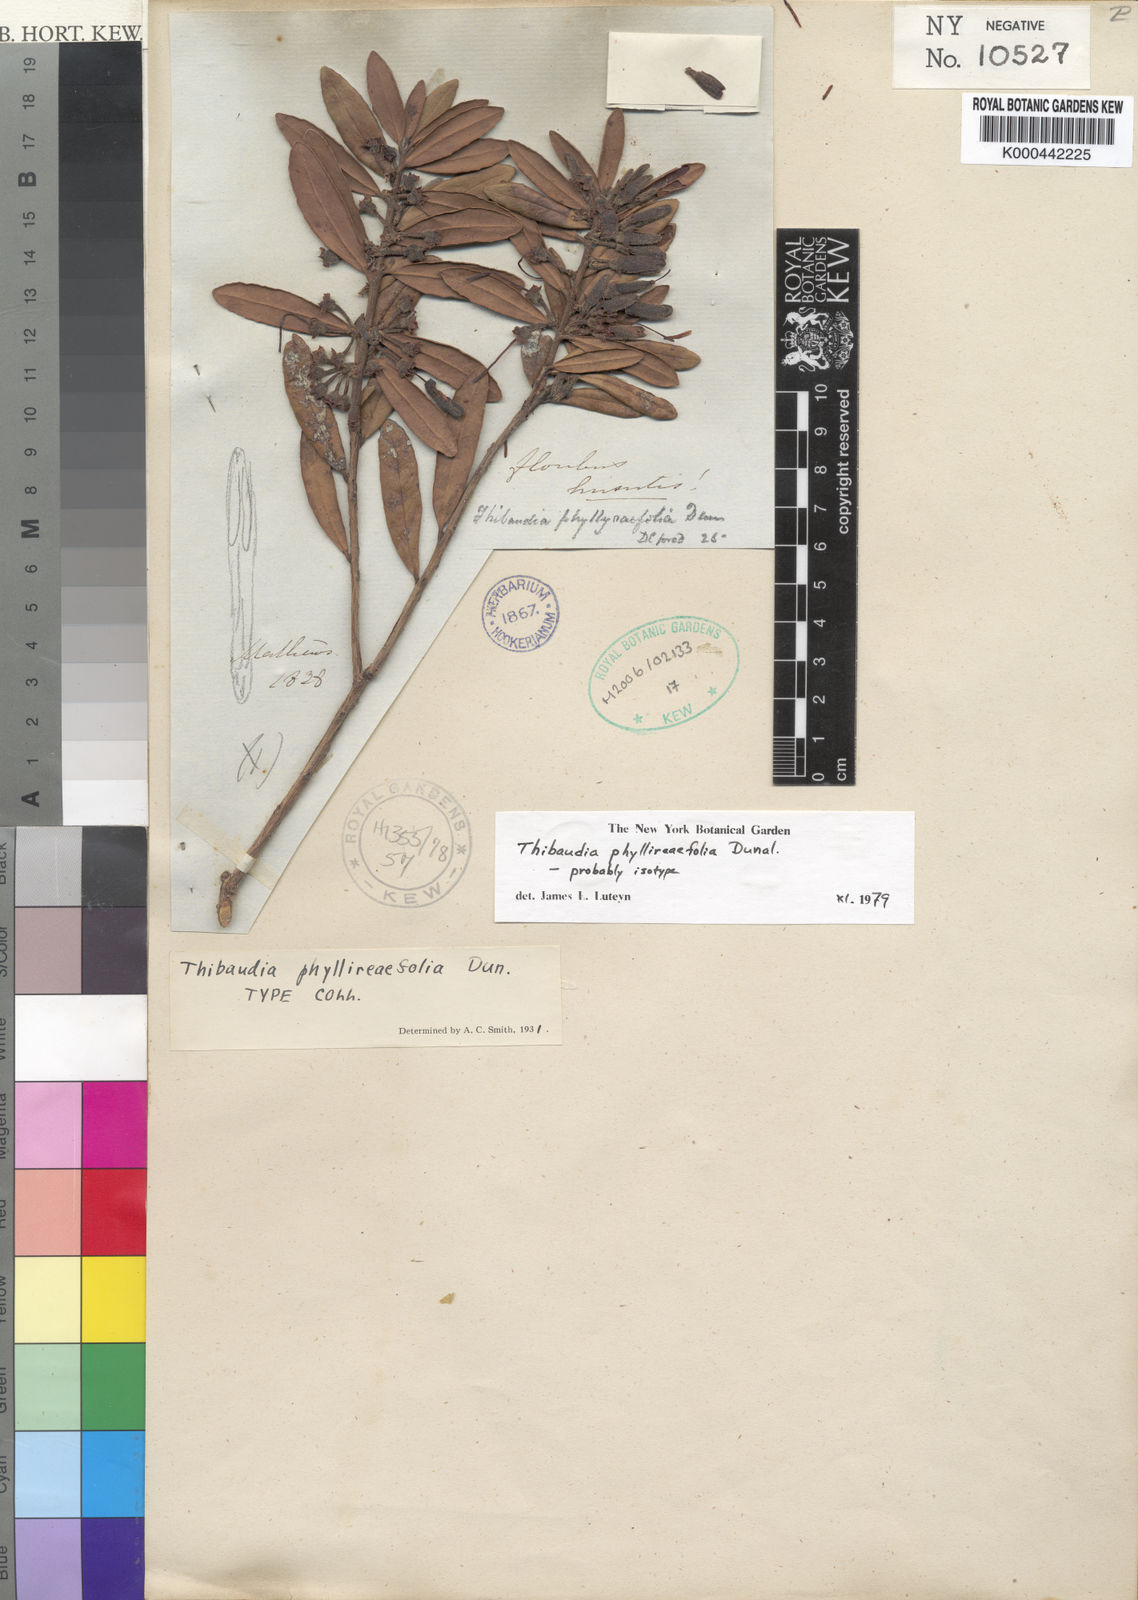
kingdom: Plantae
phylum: Tracheophyta
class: Magnoliopsida
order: Ericales
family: Ericaceae
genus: Thibaudia
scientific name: Thibaudia phyllireifolia
